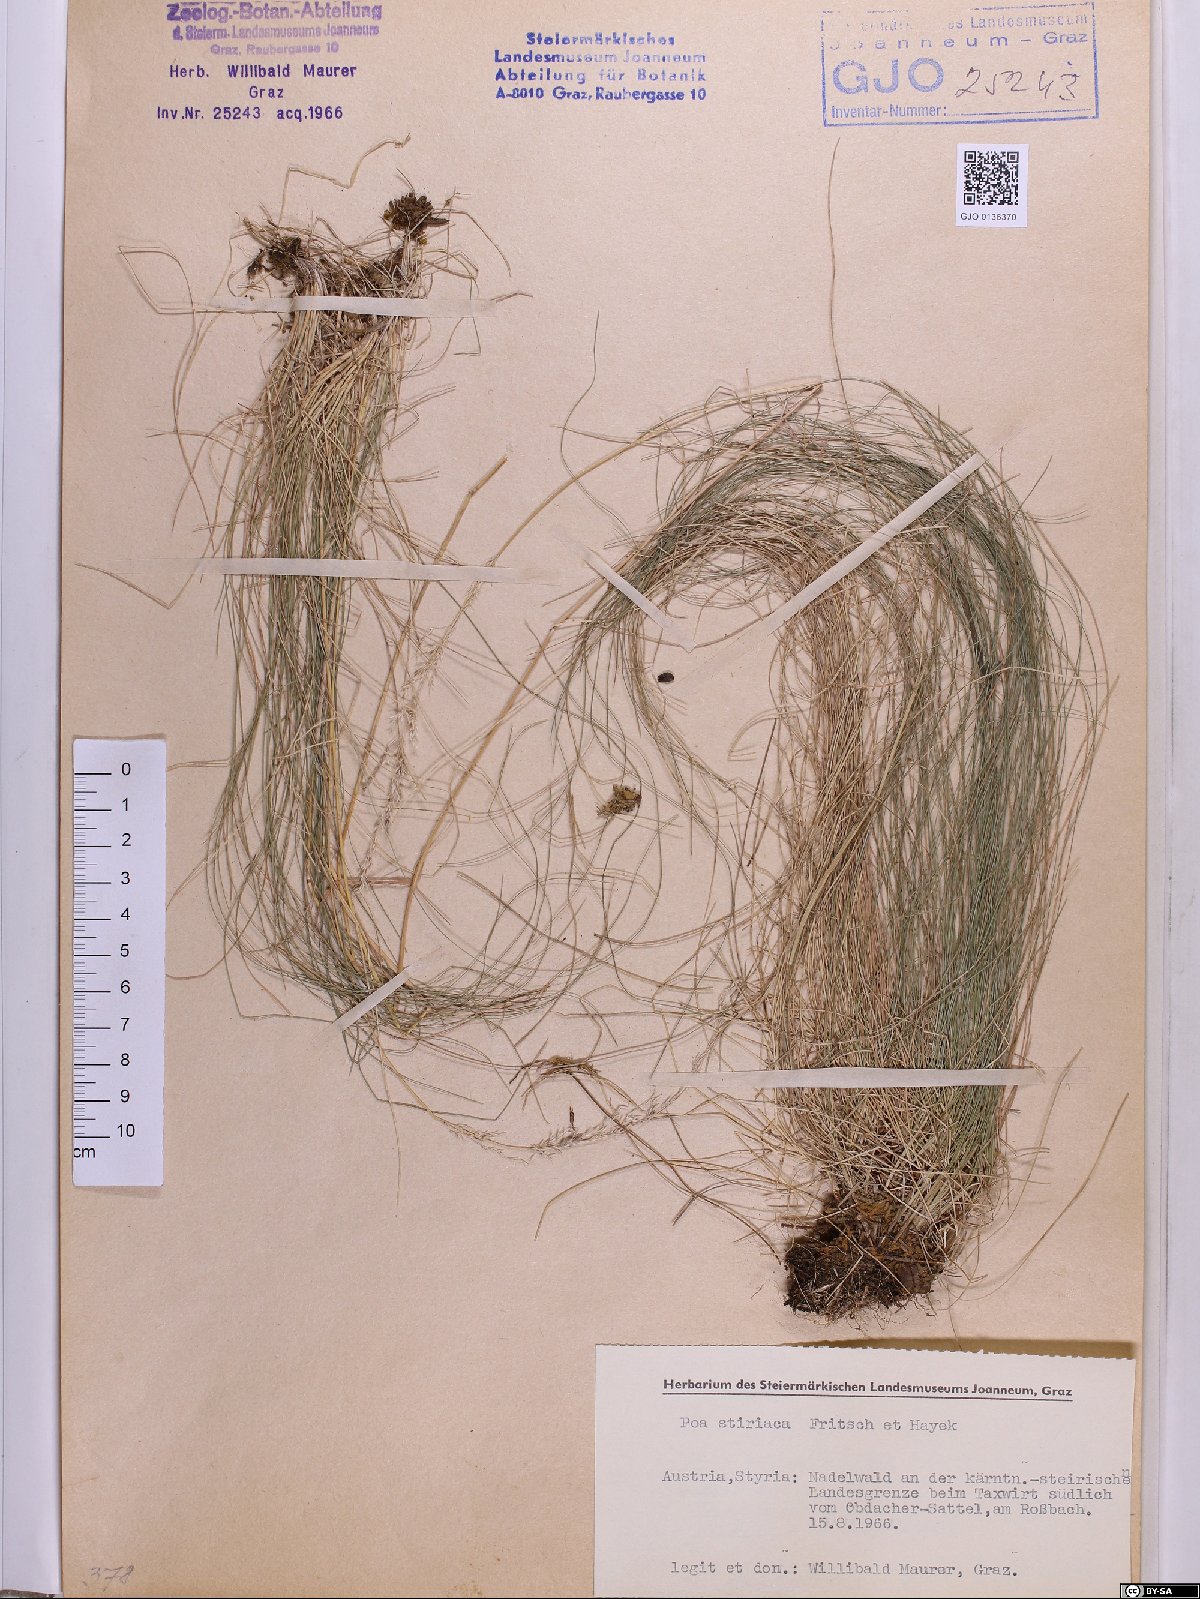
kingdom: Plantae
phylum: Tracheophyta
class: Liliopsida
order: Poales
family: Poaceae
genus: Poa
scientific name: Poa stiriaca
